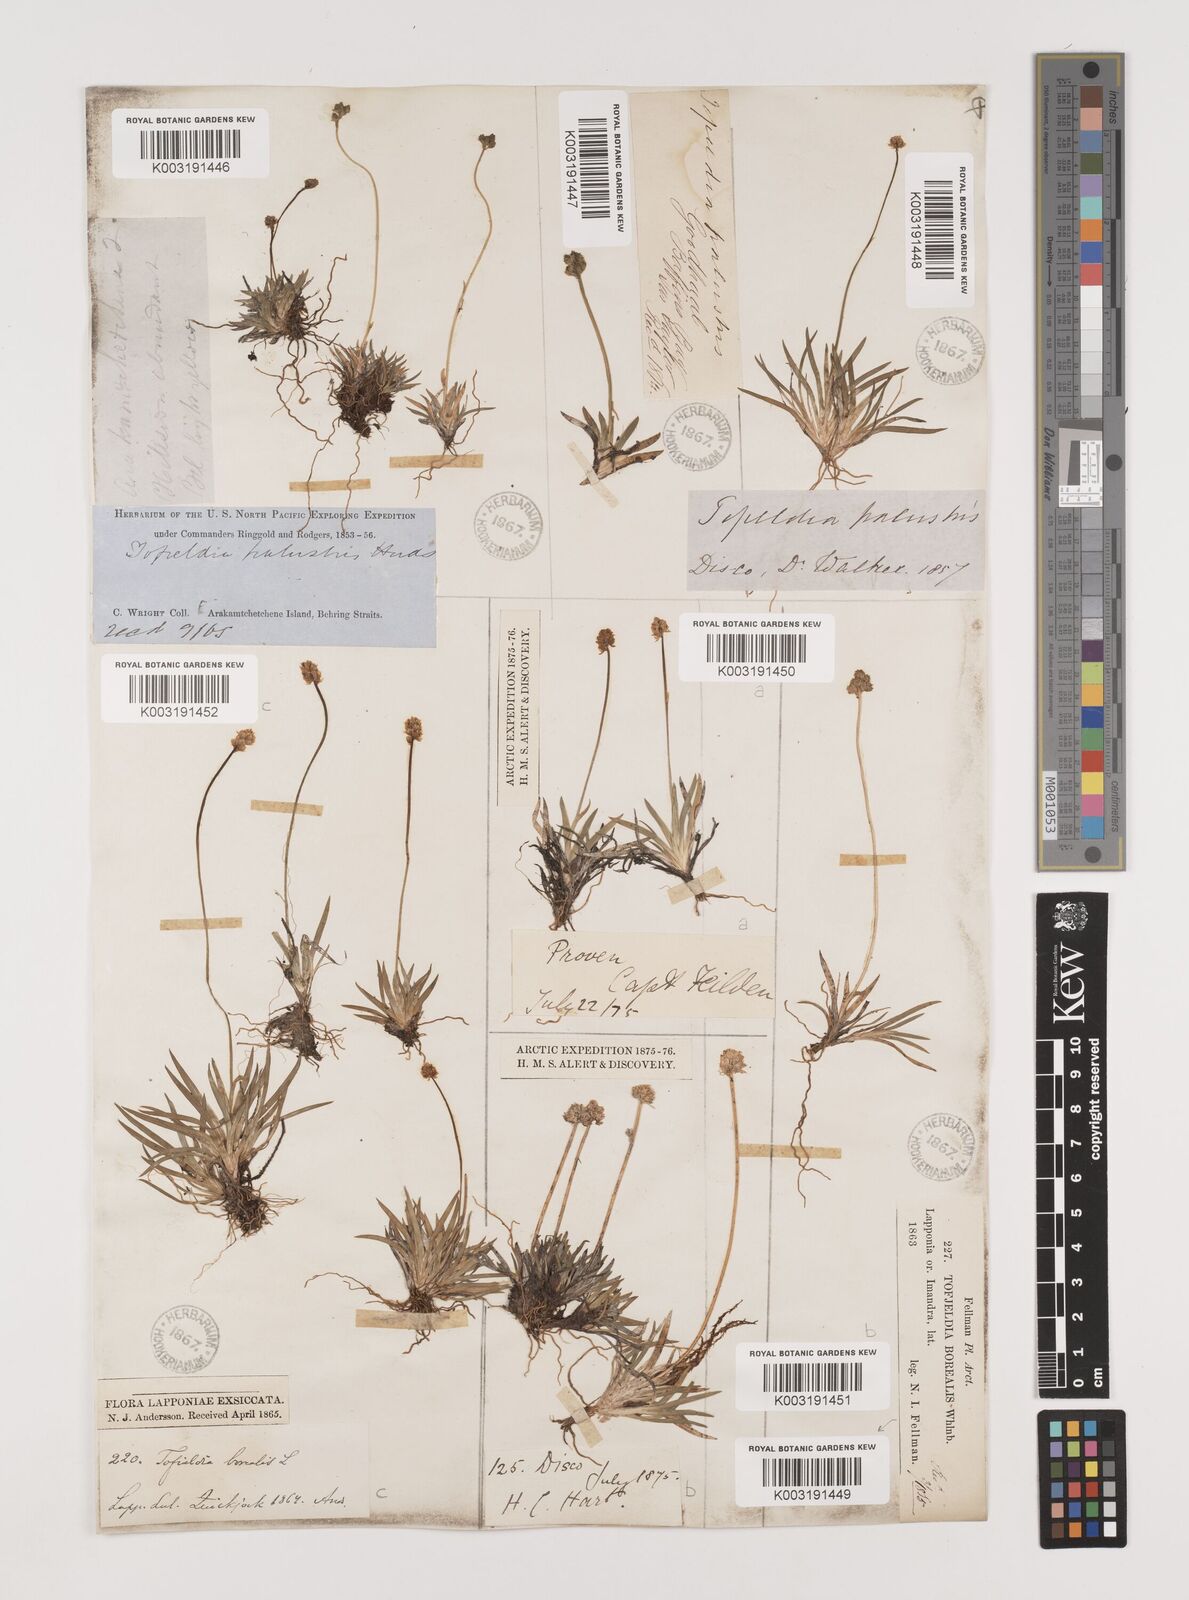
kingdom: Plantae
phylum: Tracheophyta
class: Liliopsida
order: Alismatales
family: Tofieldiaceae
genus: Tofieldia
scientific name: Tofieldia calyculata
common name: German-asphodel
